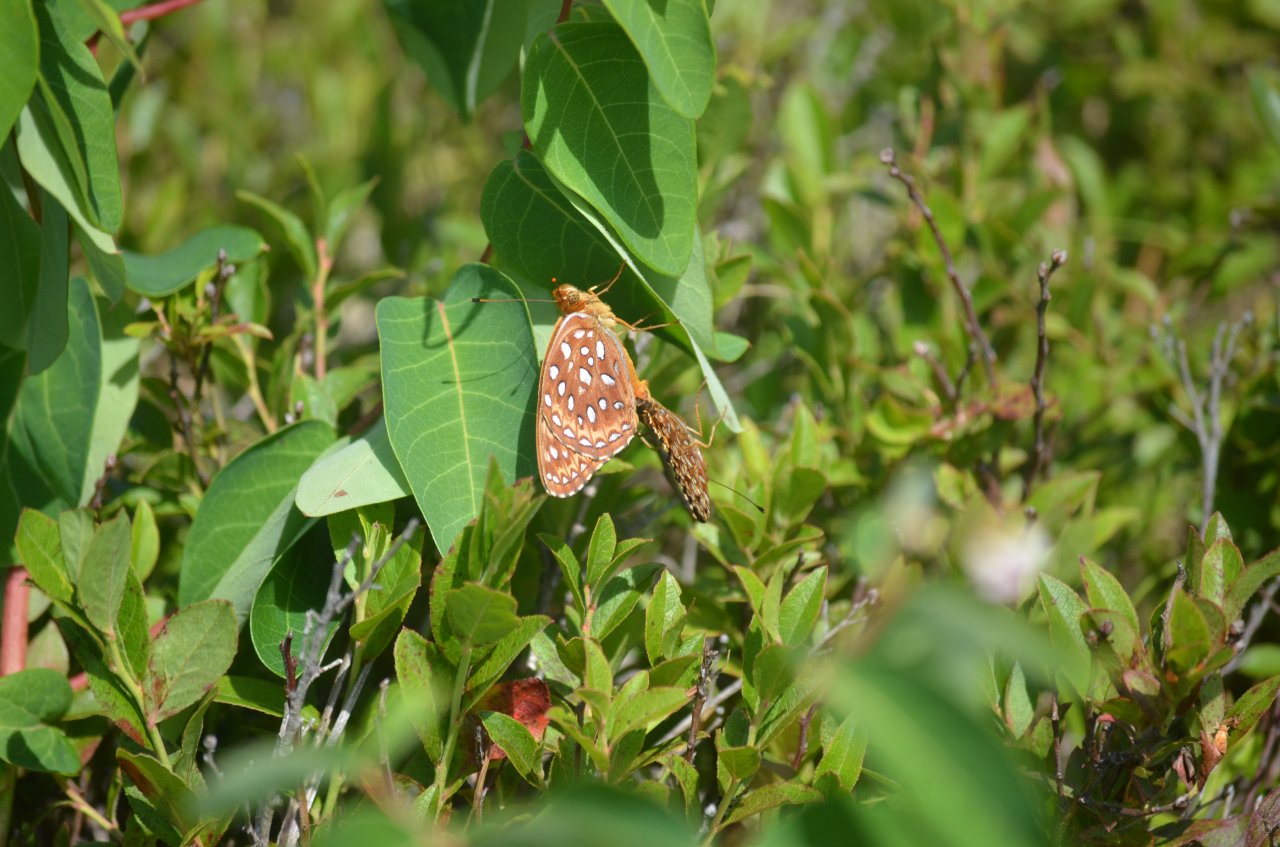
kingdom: Animalia
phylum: Arthropoda
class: Insecta
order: Lepidoptera
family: Nymphalidae
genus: Speyeria
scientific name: Speyeria aphrodite
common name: Aphrodite Fritillary
